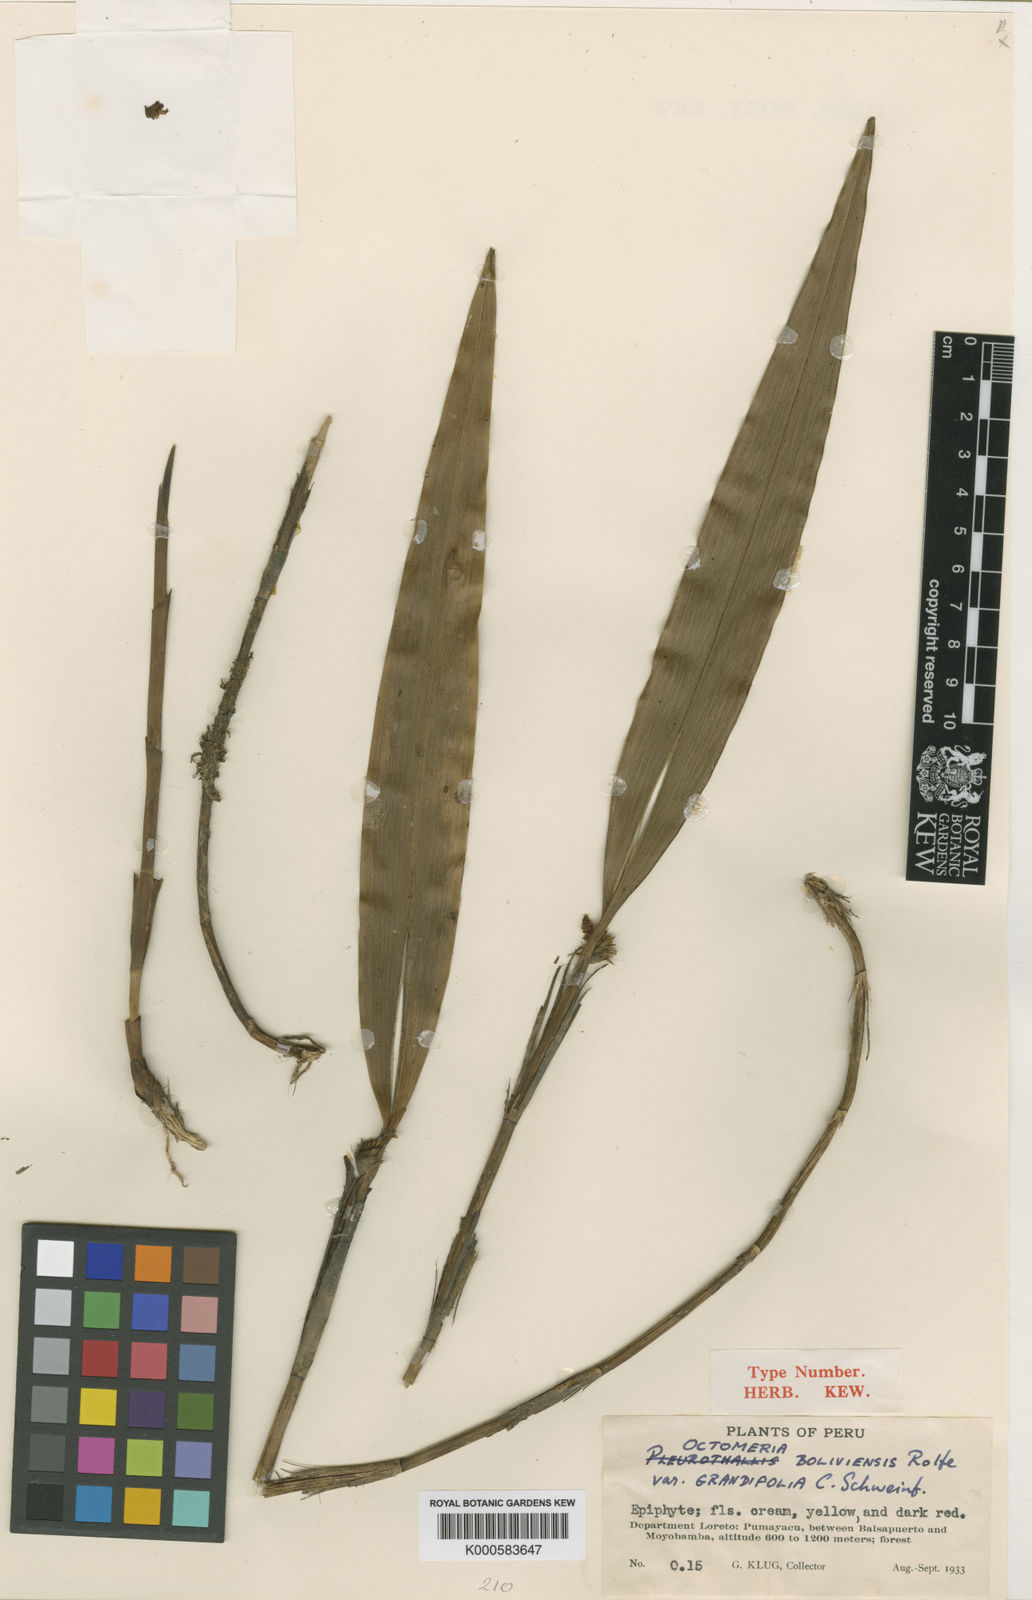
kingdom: Plantae
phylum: Tracheophyta
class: Liliopsida
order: Asparagales
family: Orchidaceae
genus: Octomeria
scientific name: Octomeria peruviana
